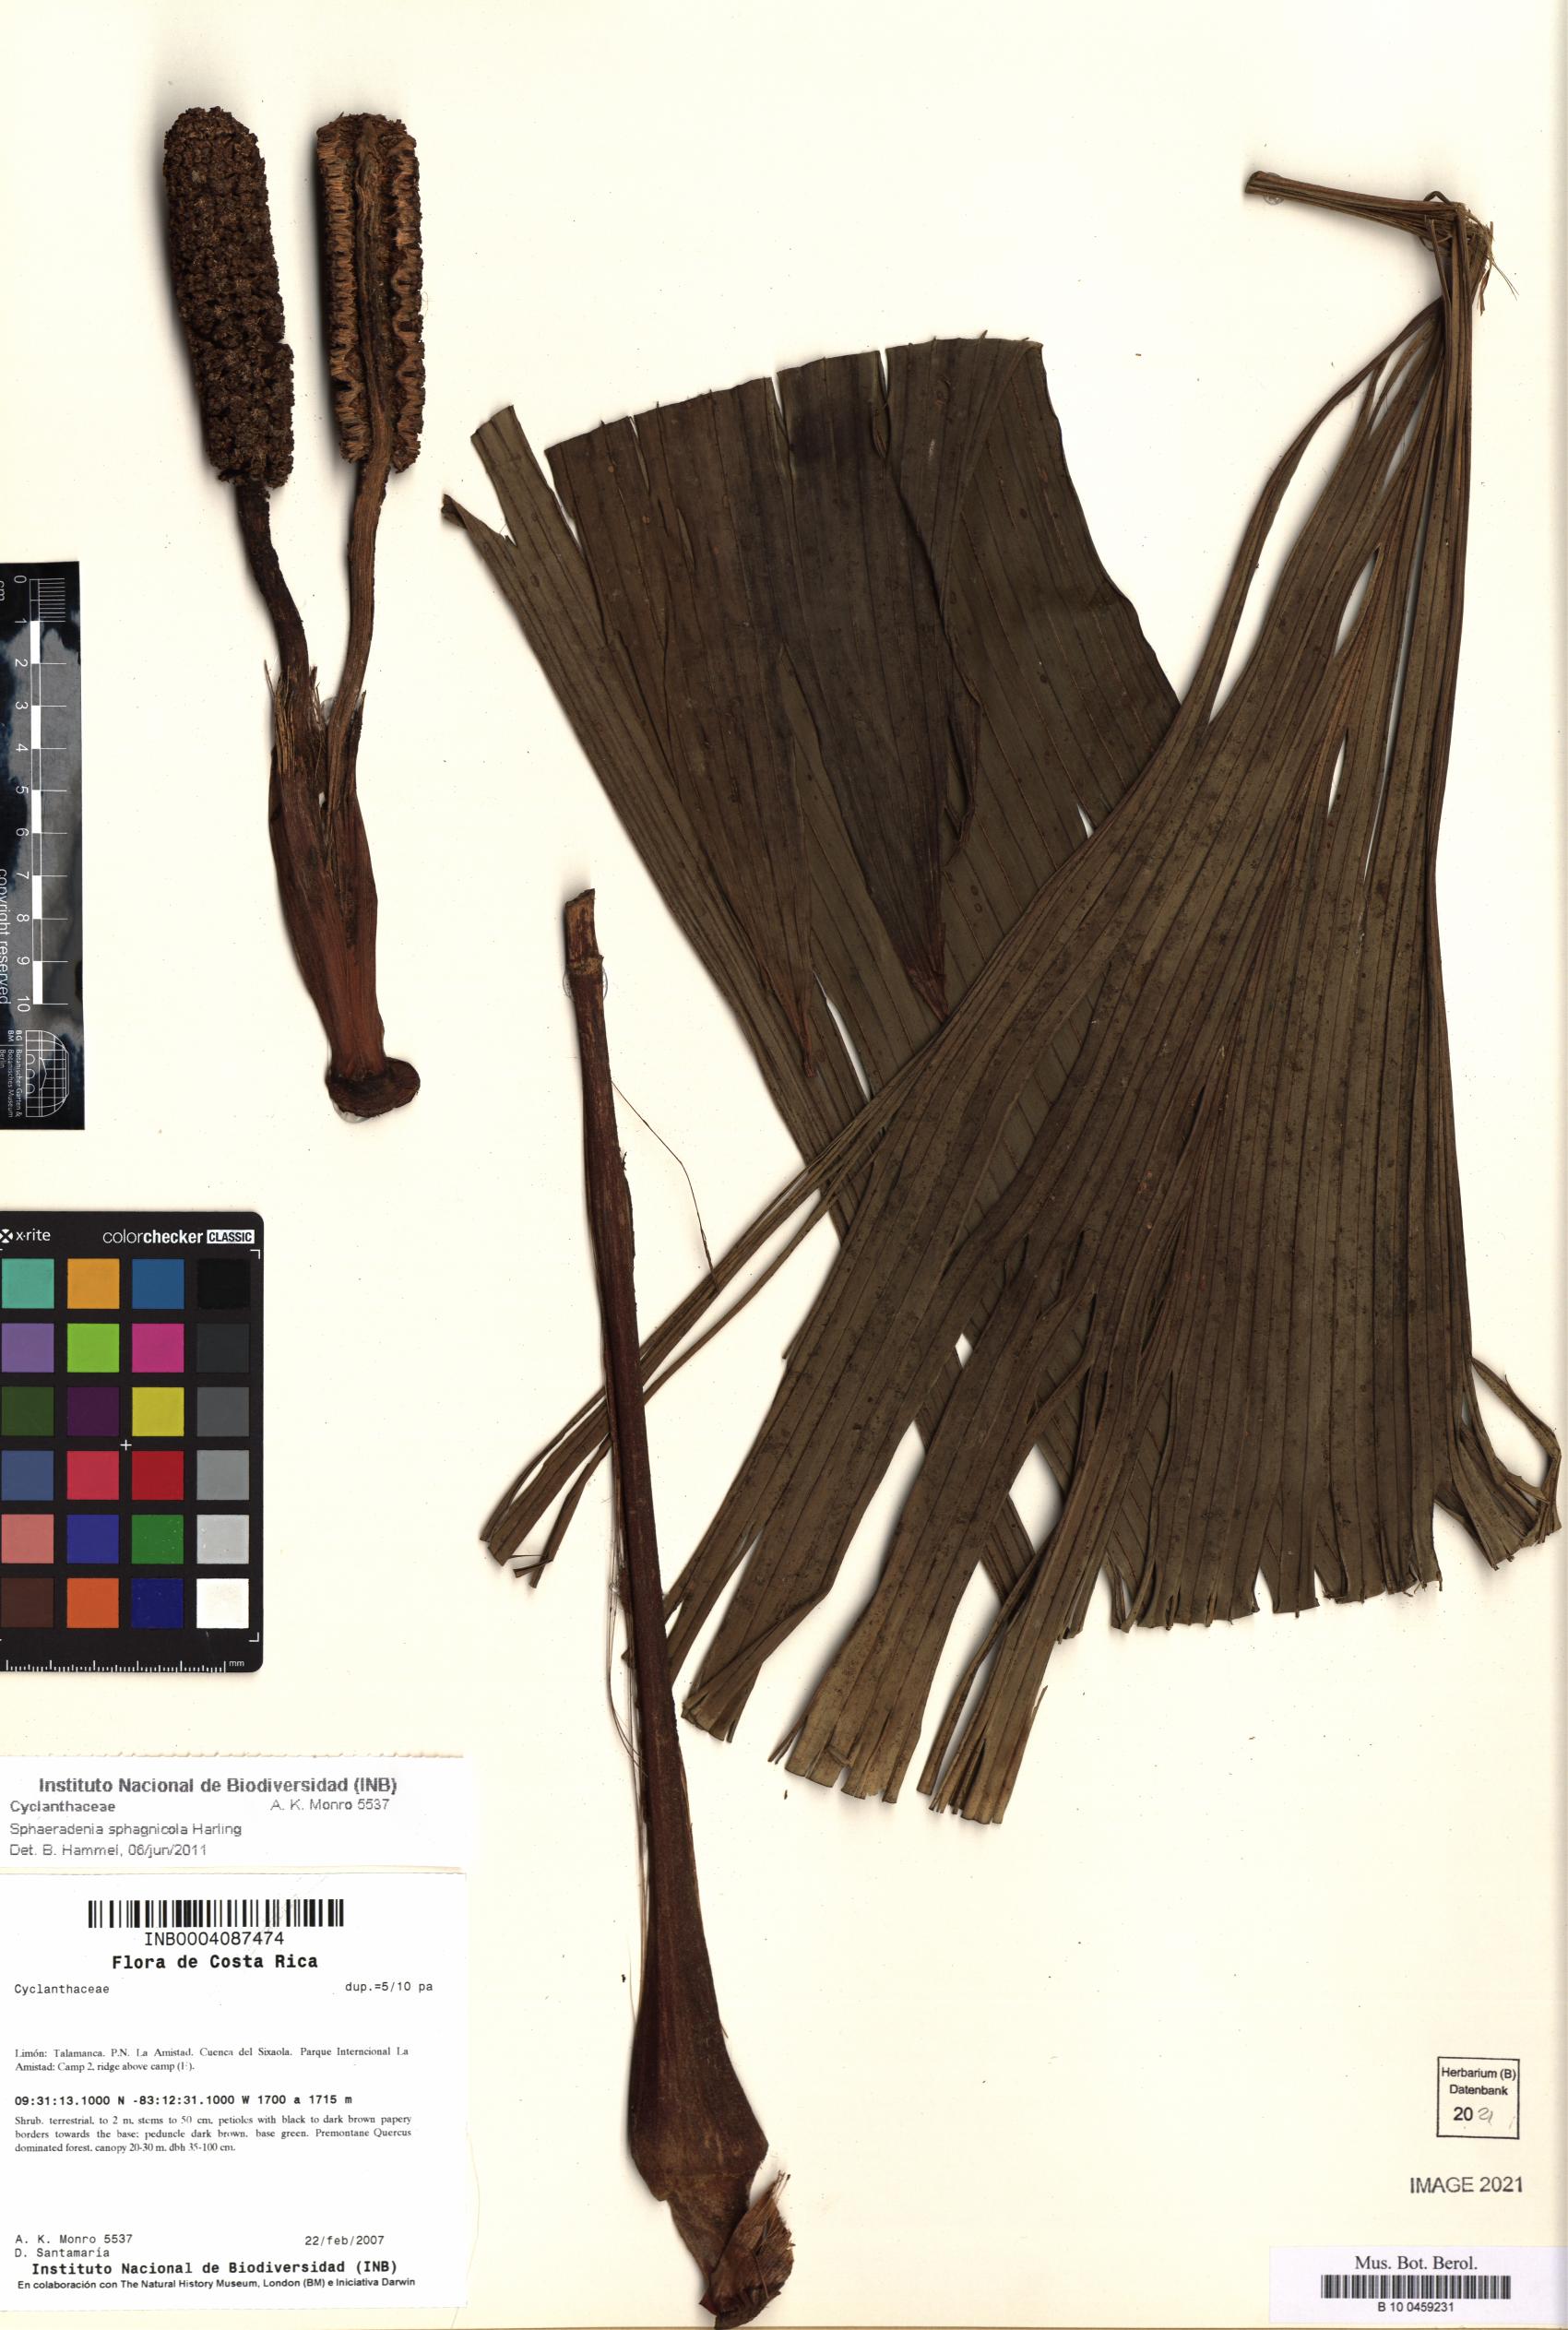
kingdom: Plantae
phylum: Tracheophyta
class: Liliopsida
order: Pandanales
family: Cyclanthaceae
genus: Sphaeradenia
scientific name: Sphaeradenia sphagnicola
